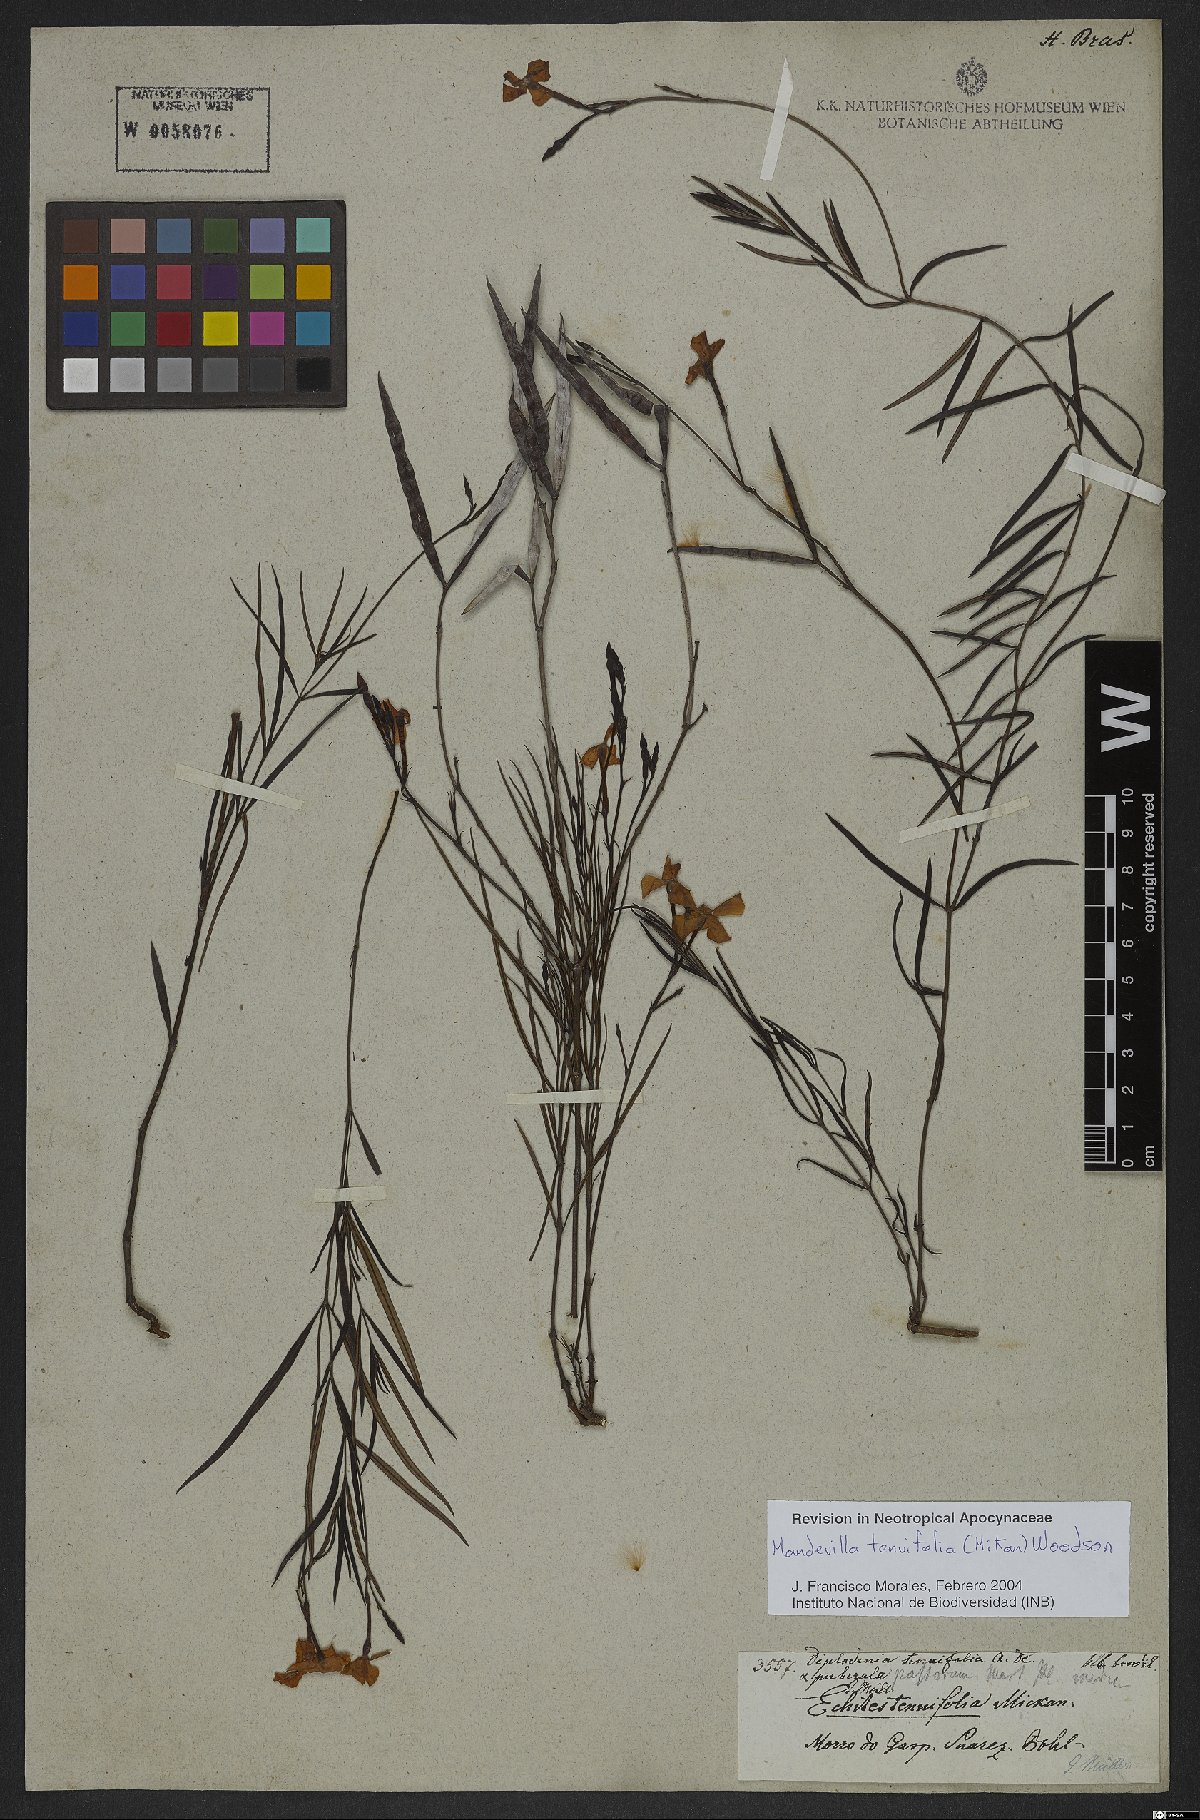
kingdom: Plantae
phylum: Tracheophyta
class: Magnoliopsida
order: Gentianales
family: Apocynaceae
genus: Mandevilla
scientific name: Mandevilla tenuifolia
